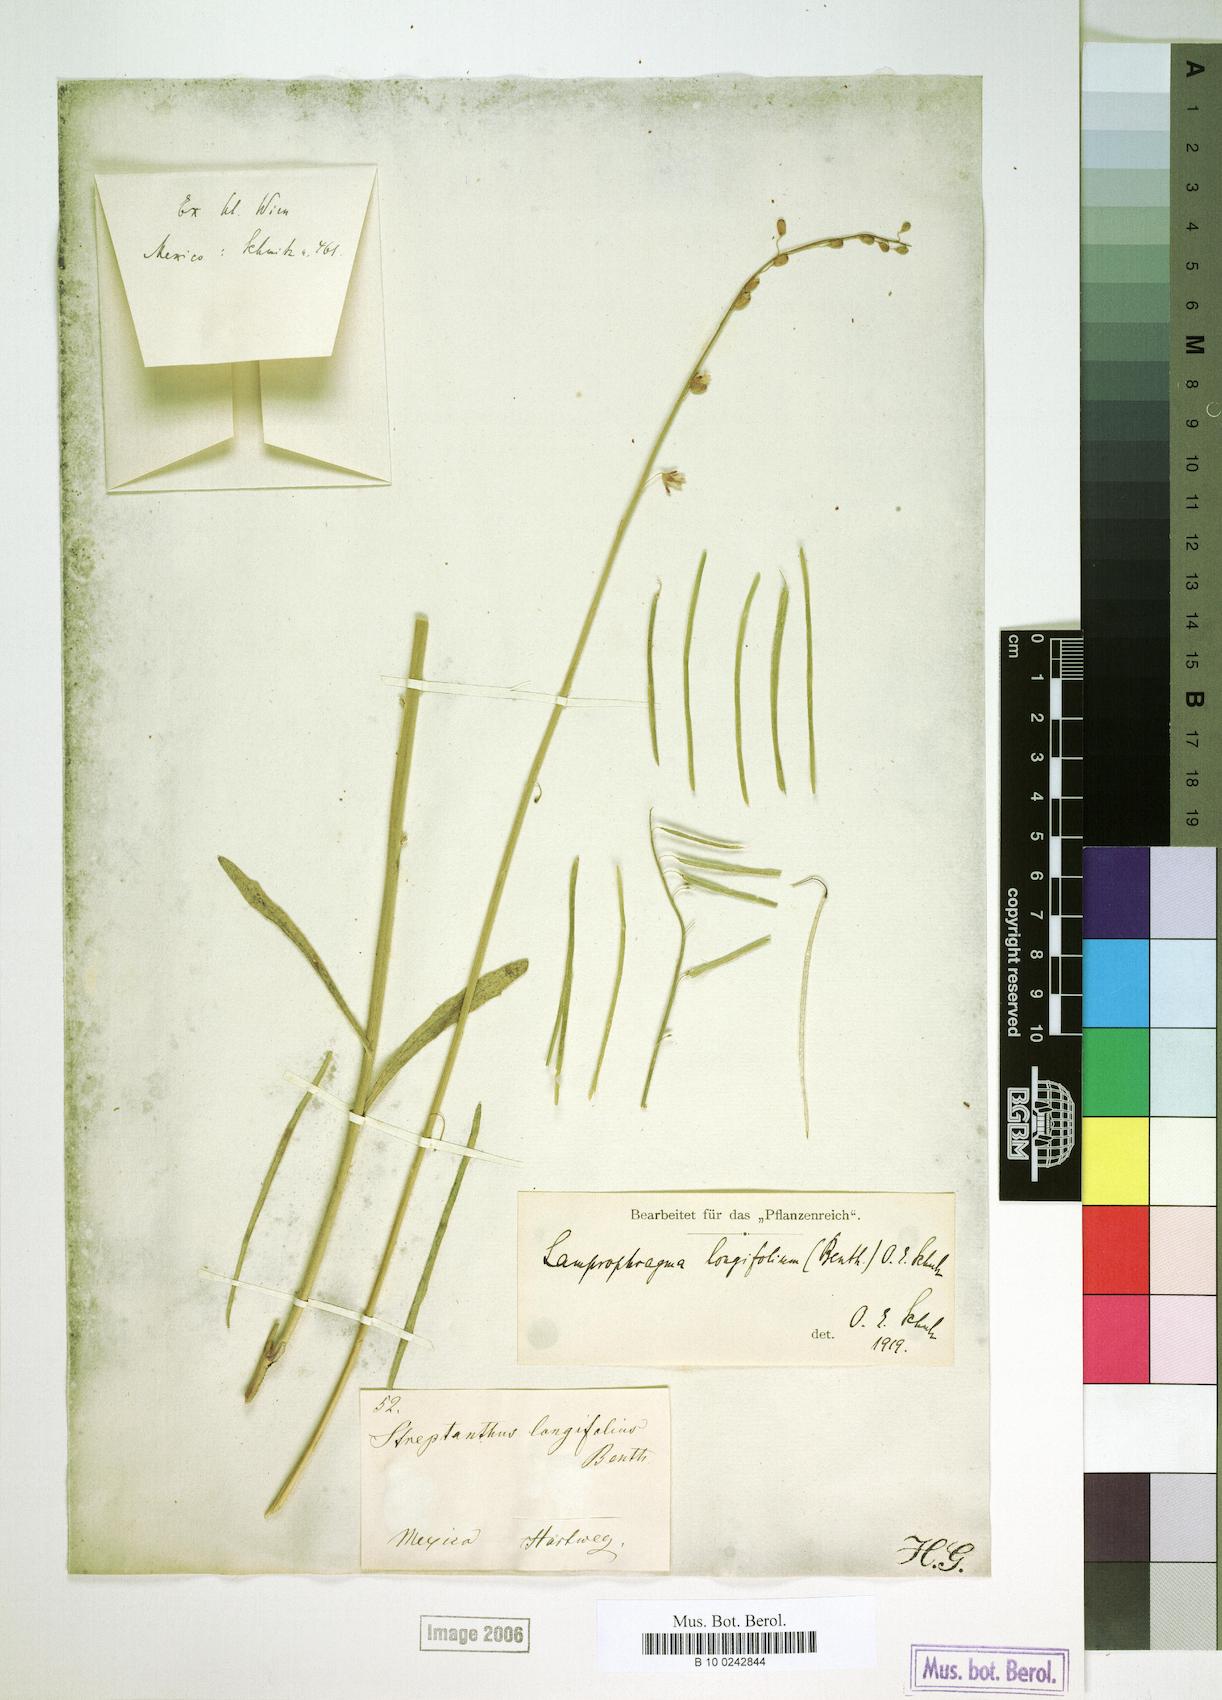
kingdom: Plantae
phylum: Tracheophyta
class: Magnoliopsida
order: Brassicales
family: Brassicaceae
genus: Pennellia
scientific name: Pennellia longifolia
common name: Longleaf mock thelypody
